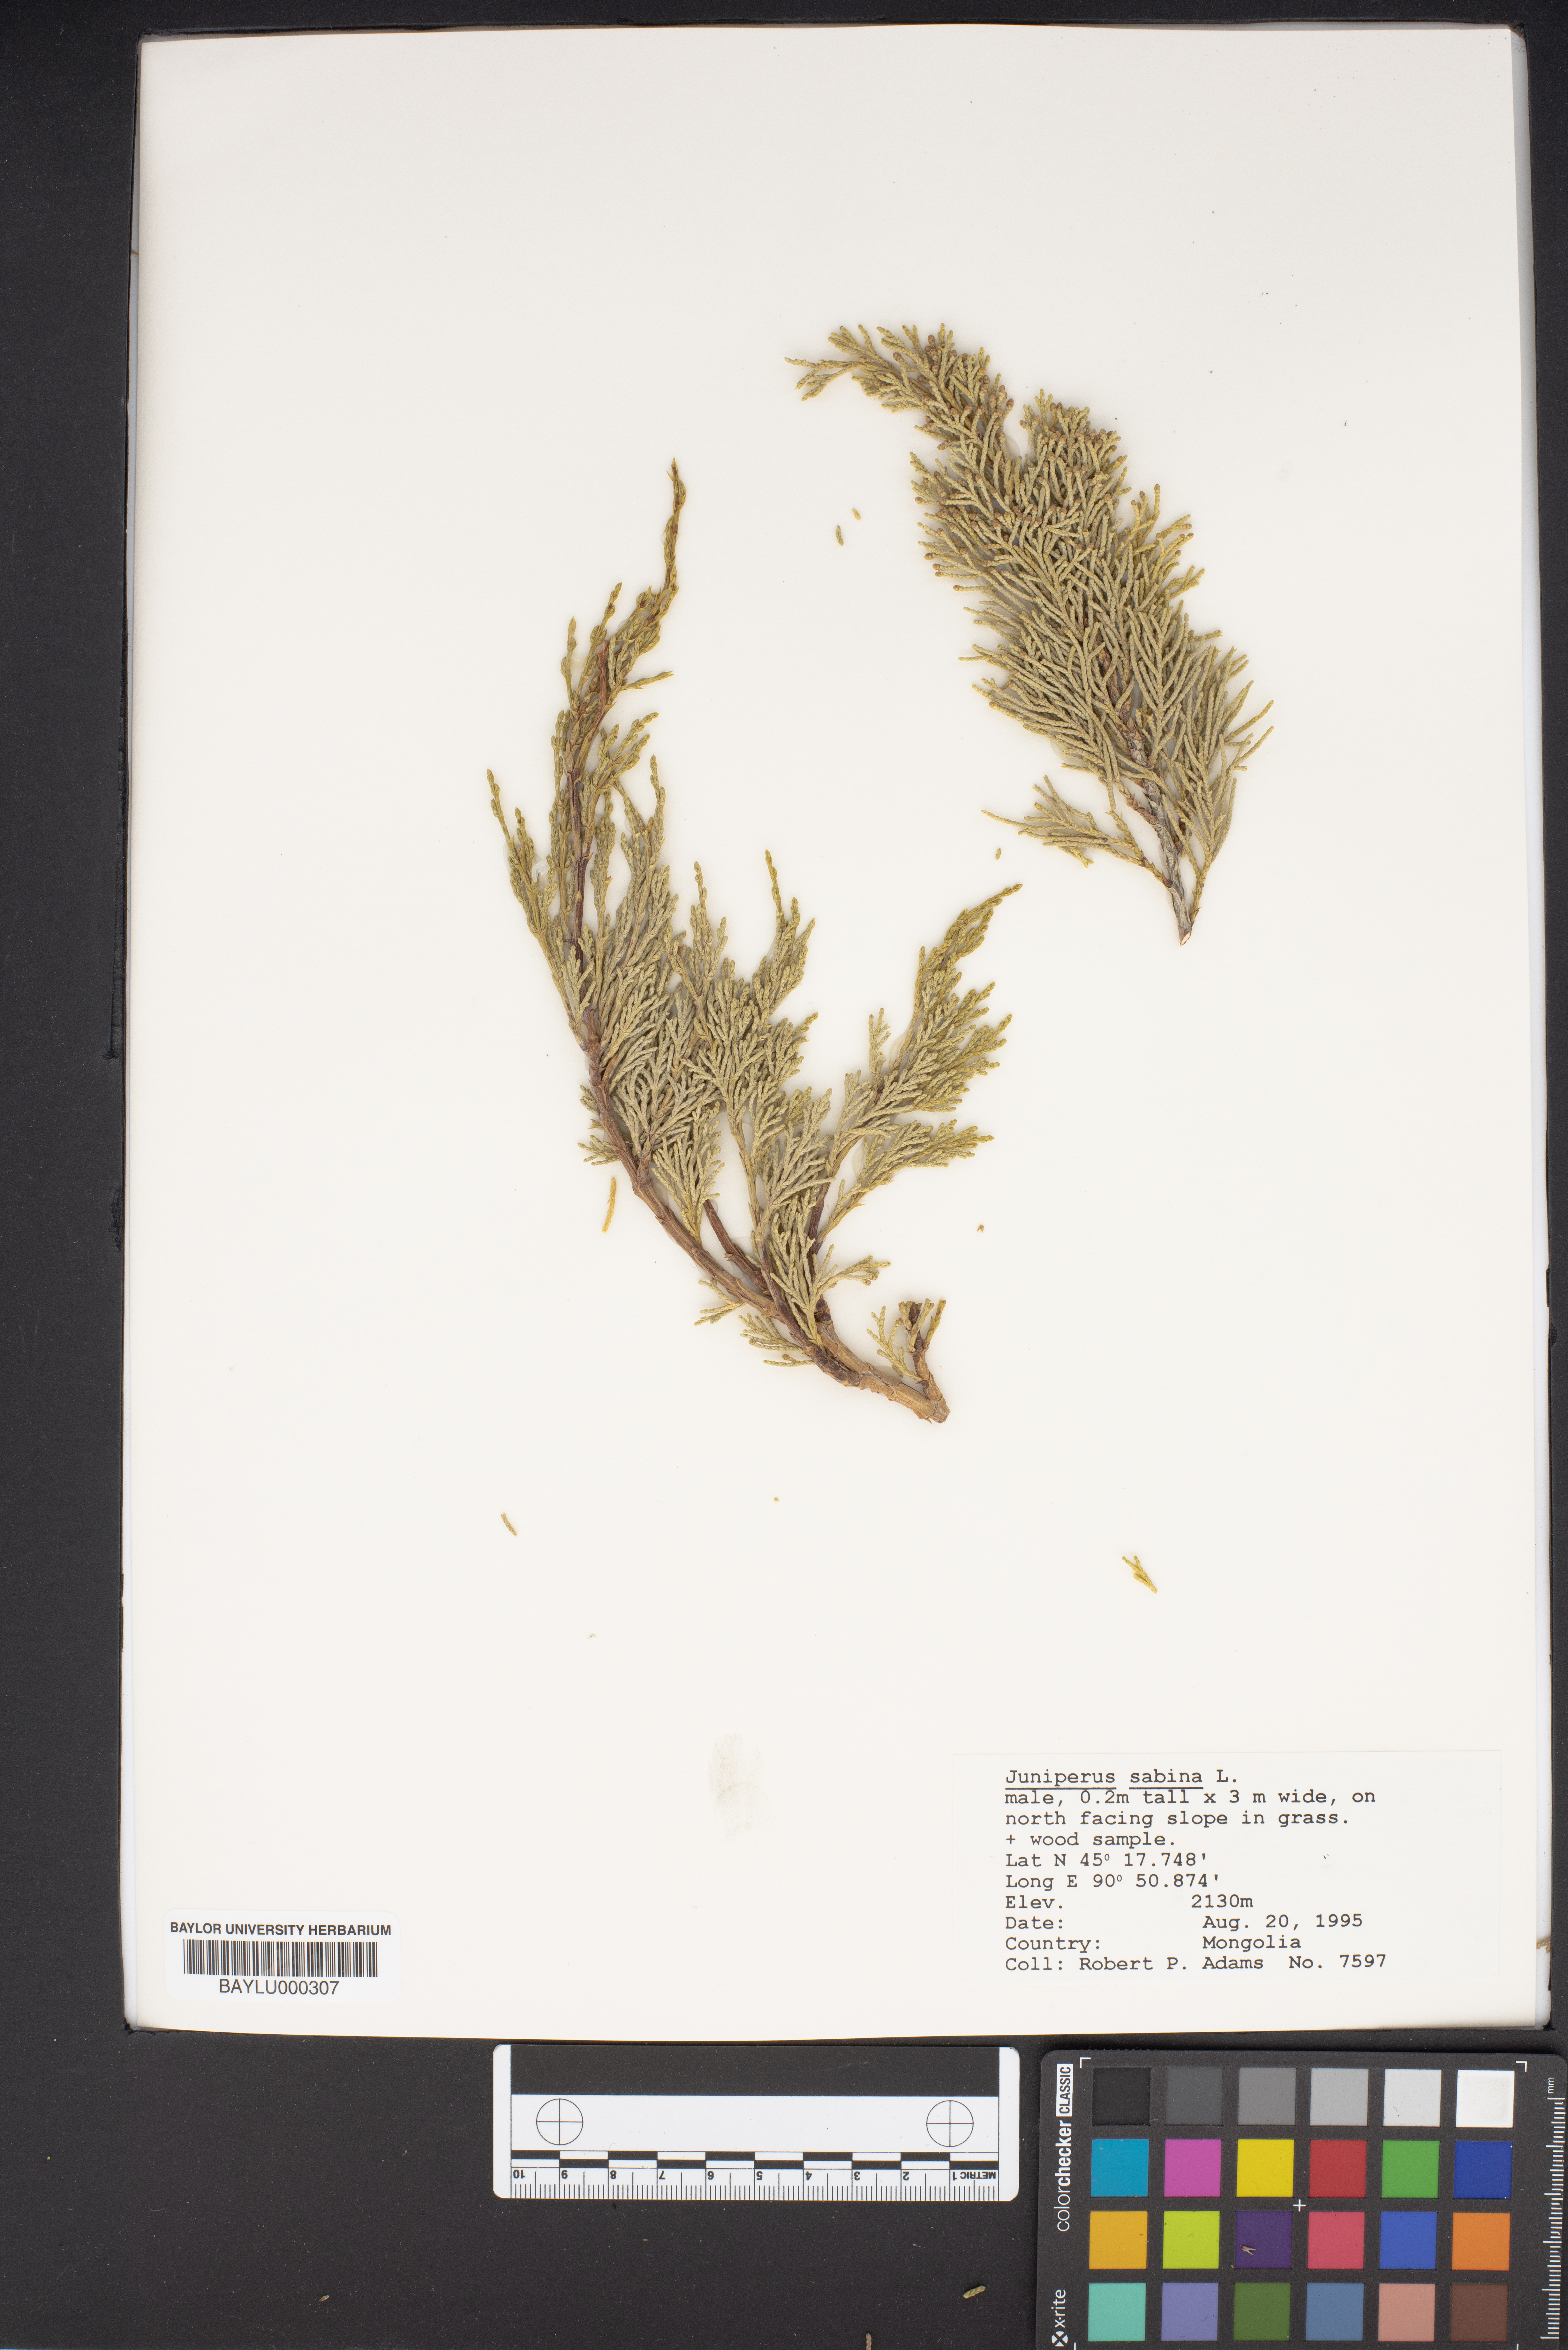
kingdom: Plantae
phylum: Tracheophyta
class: Pinopsida
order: Pinales
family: Cupressaceae
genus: Juniperus
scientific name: Juniperus sabina
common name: Savin
